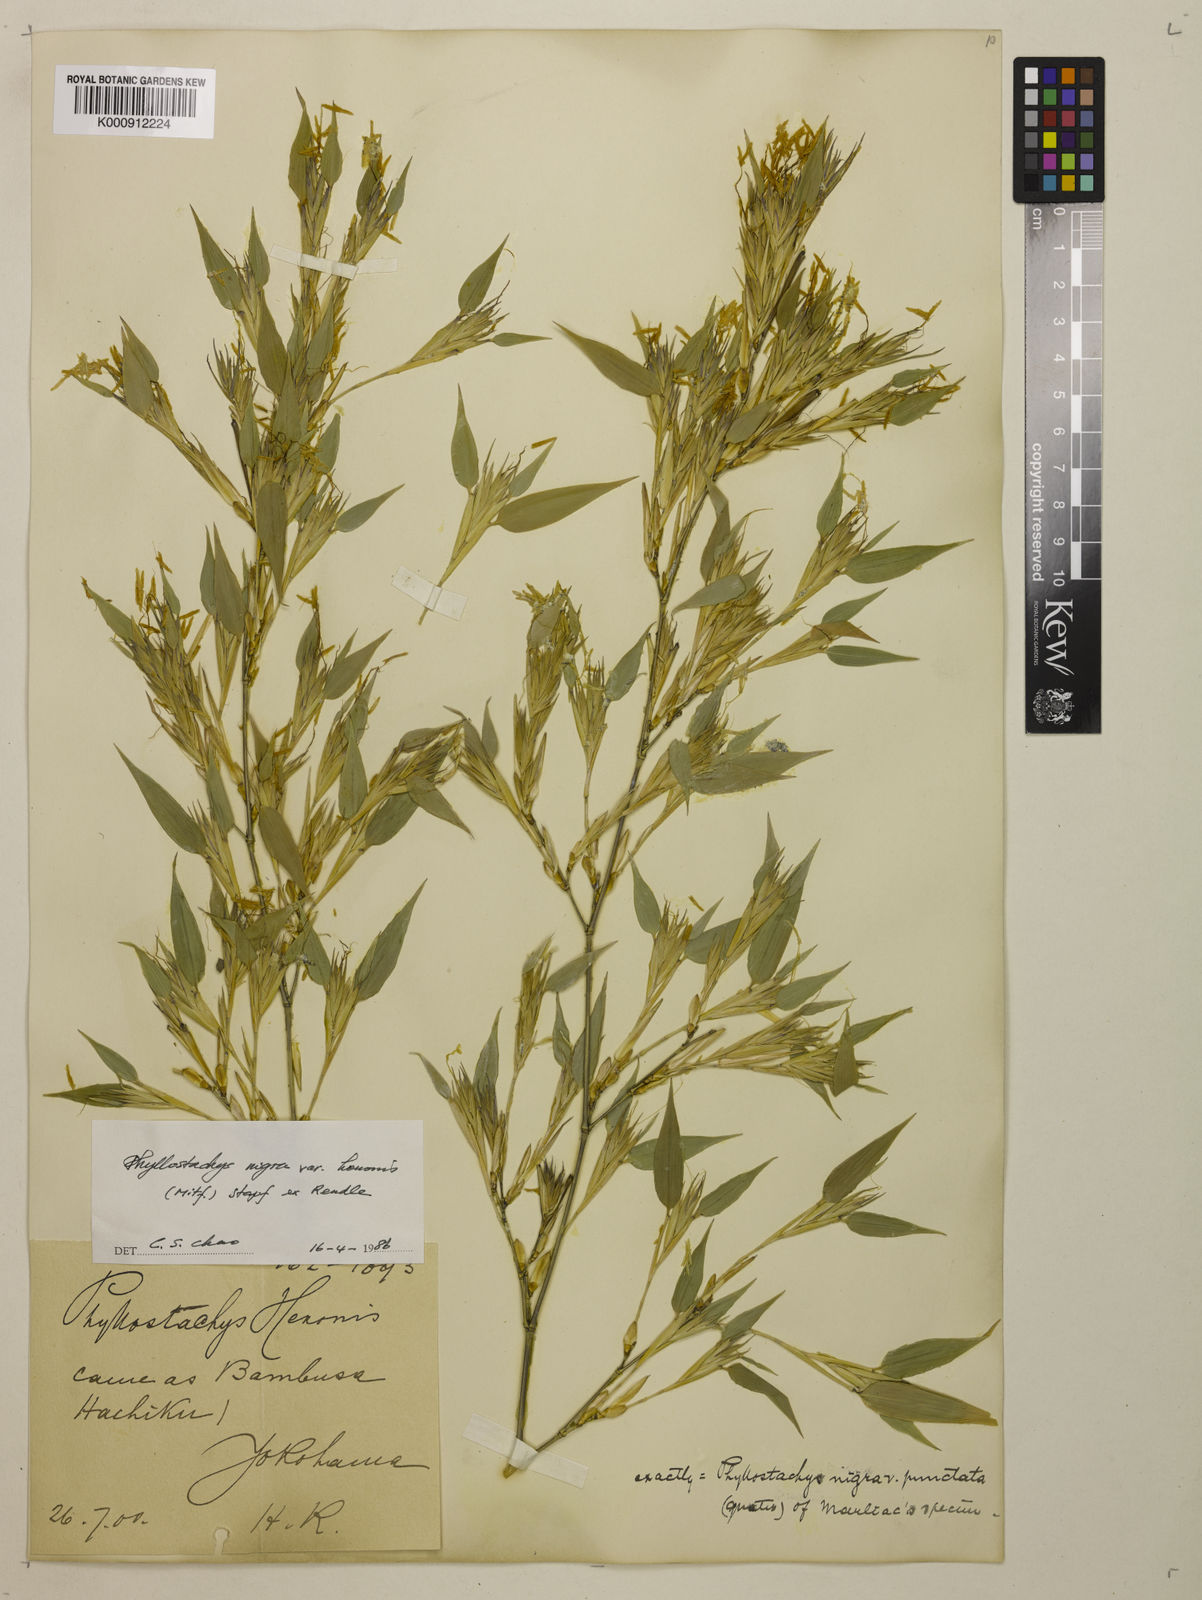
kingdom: Plantae
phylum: Tracheophyta
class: Liliopsida
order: Poales
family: Poaceae
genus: Phyllostachys
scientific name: Phyllostachys nigra
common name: Black bamboo
